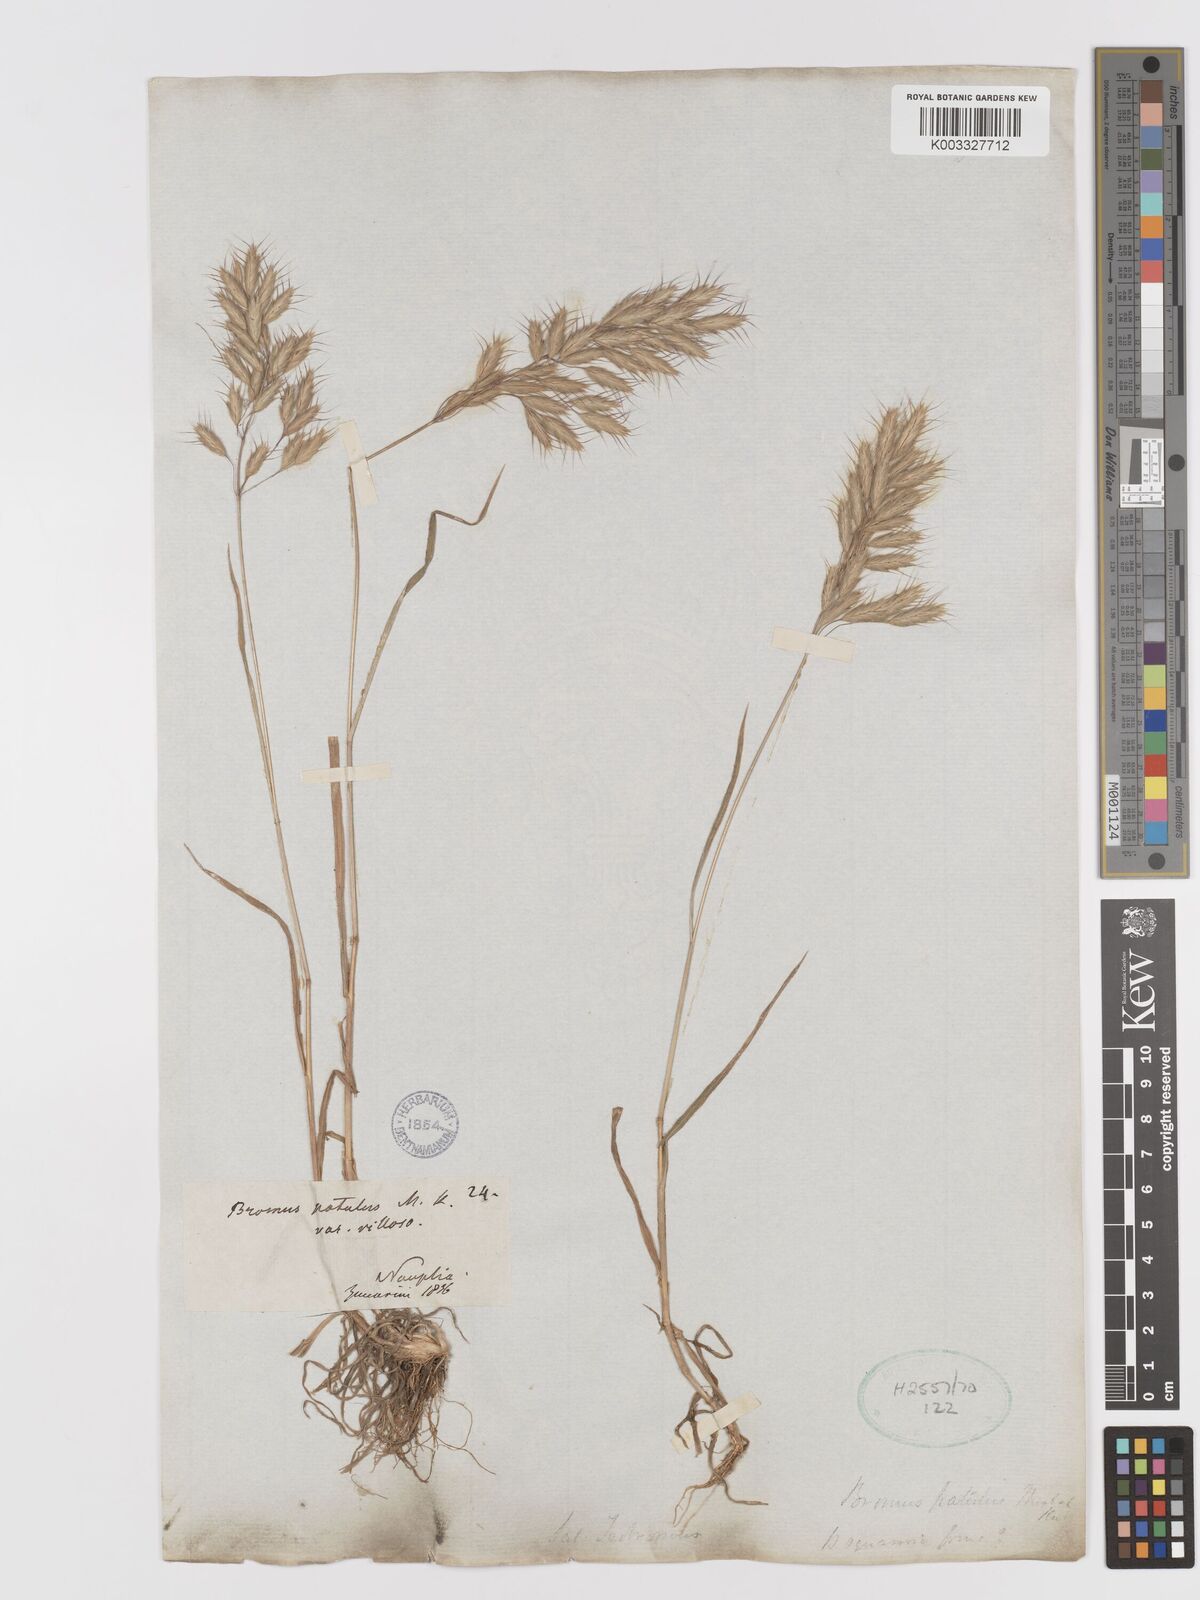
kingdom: Plantae
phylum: Tracheophyta
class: Liliopsida
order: Poales
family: Poaceae
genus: Bromus
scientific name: Bromus japonicus
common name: Japanese brome
